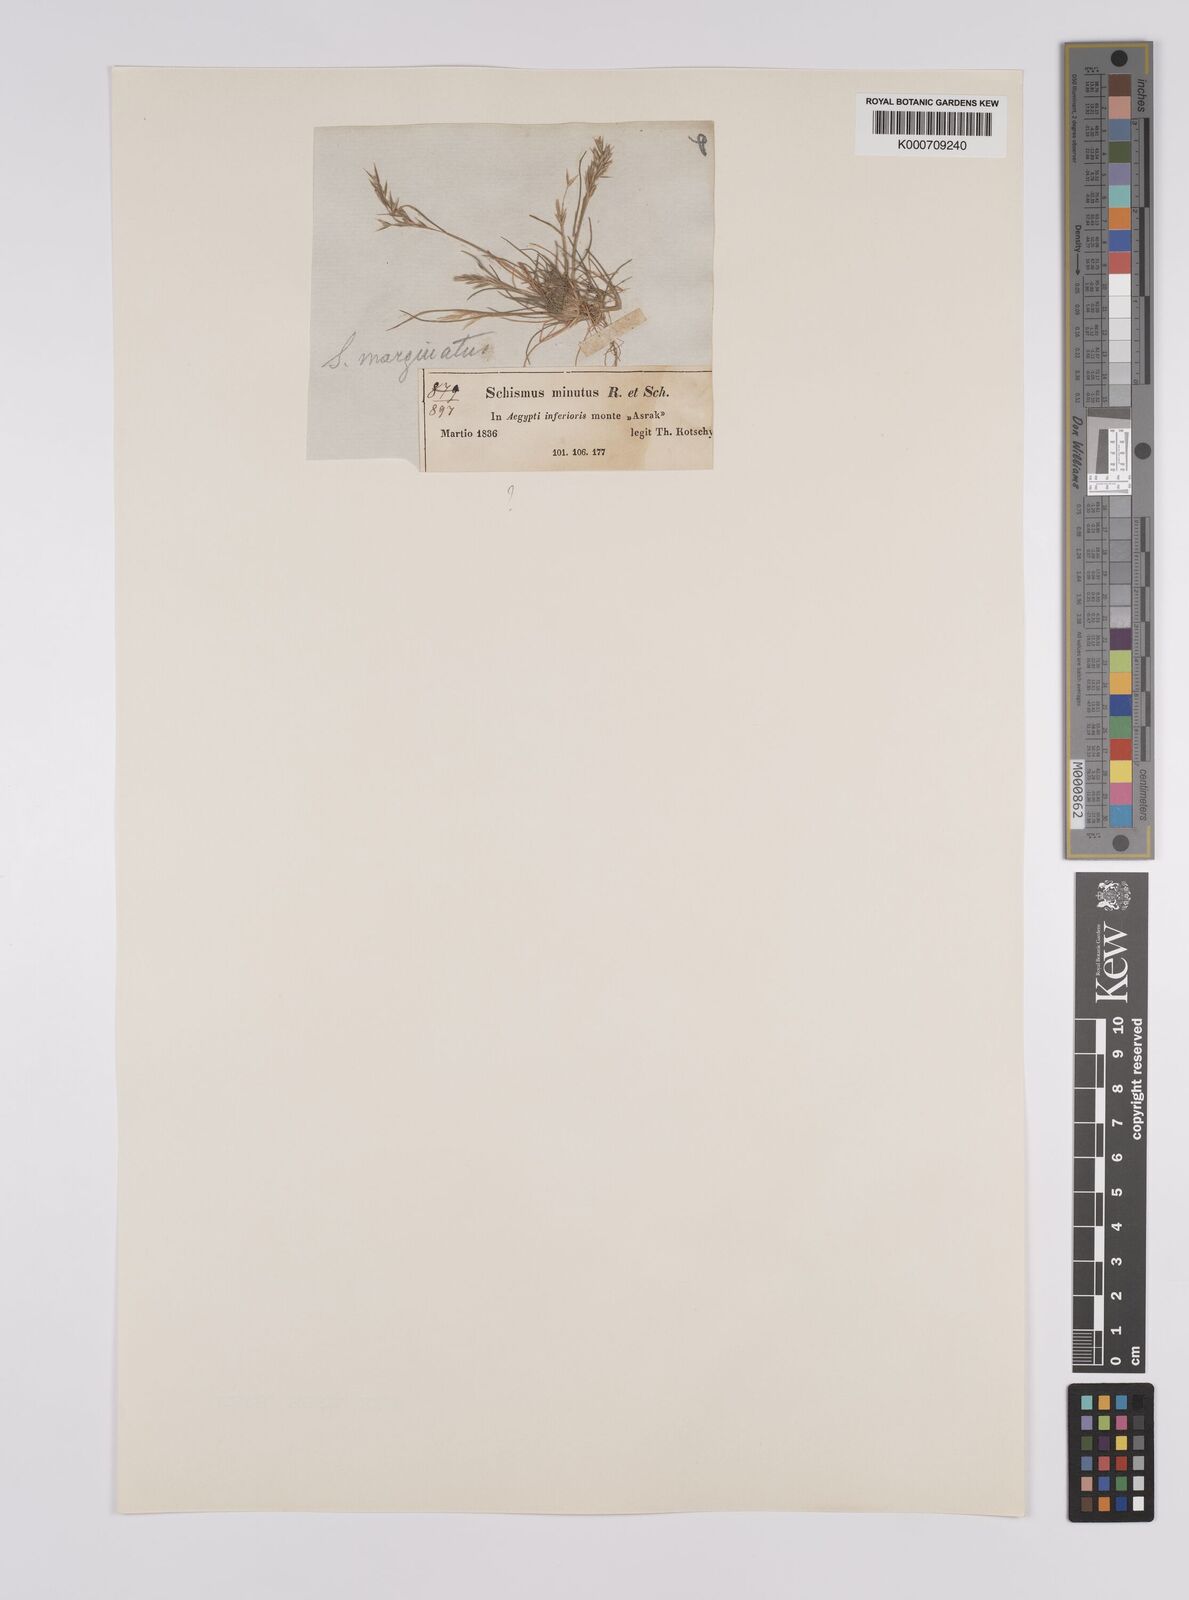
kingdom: Plantae
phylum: Tracheophyta
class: Liliopsida
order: Poales
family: Poaceae
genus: Schismus
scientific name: Schismus barbatus
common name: Kelch-grass
